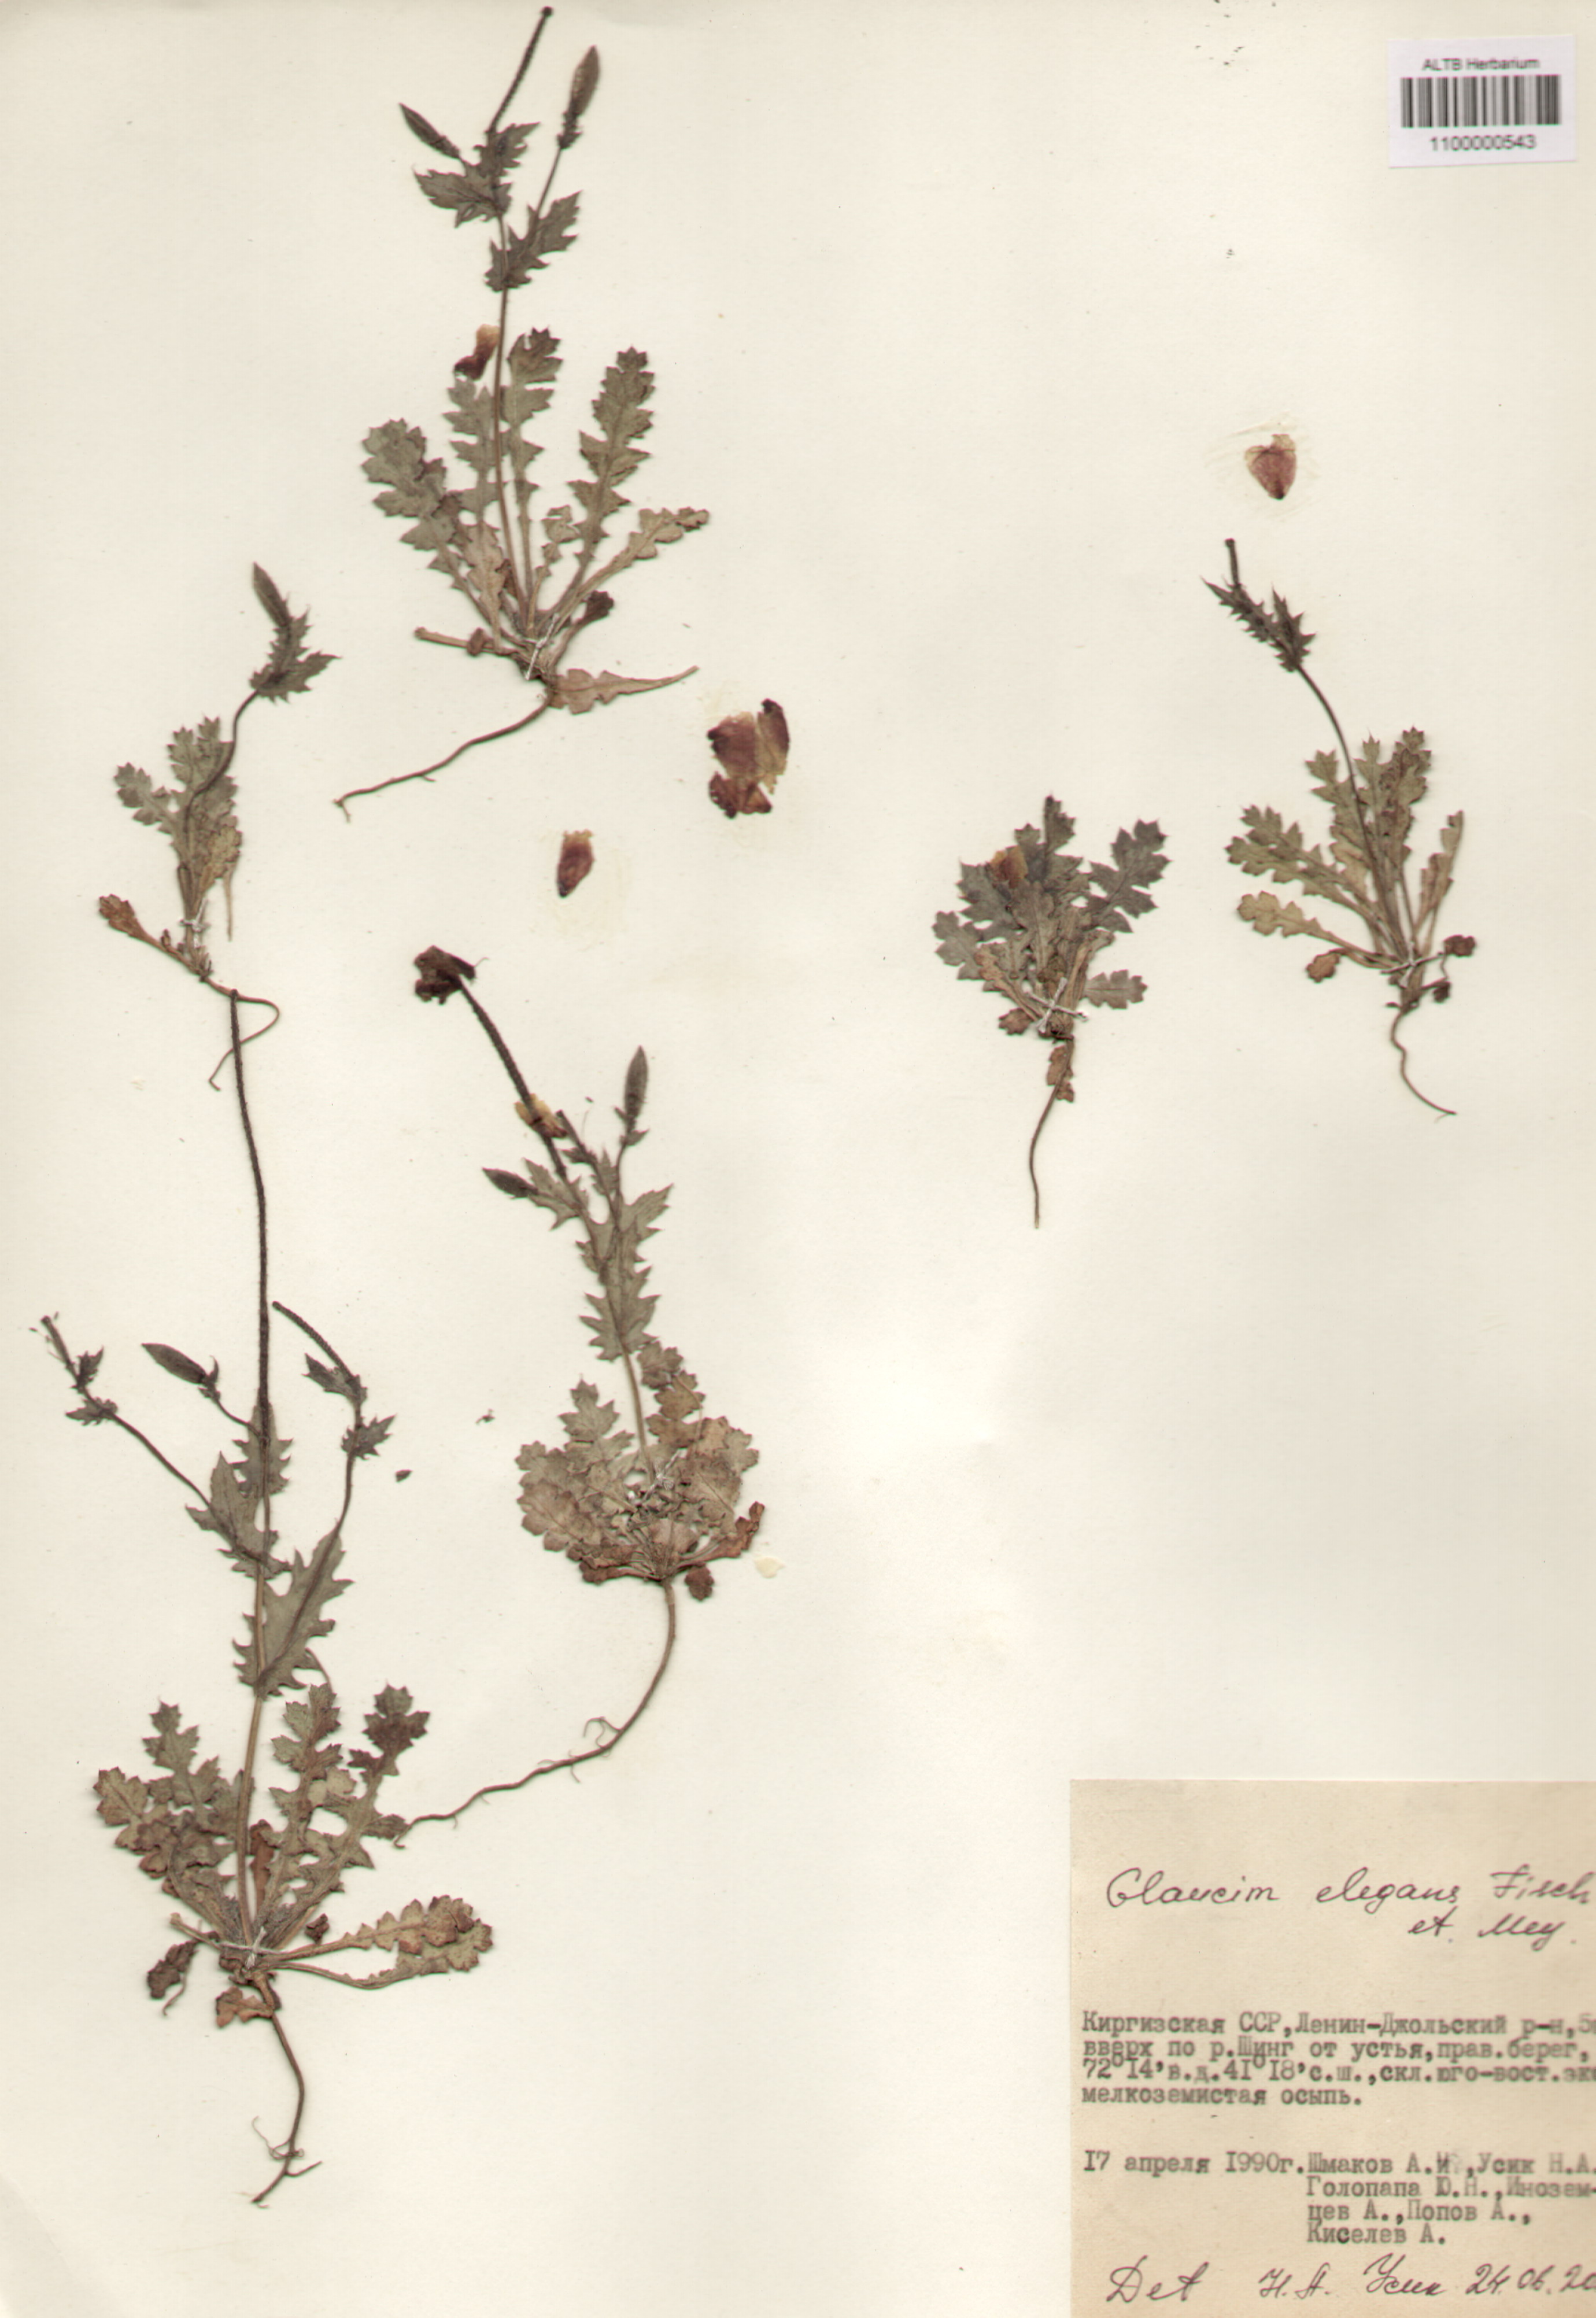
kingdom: Plantae
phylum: Tracheophyta
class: Magnoliopsida
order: Ranunculales
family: Papaveraceae
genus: Glaucium
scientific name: Glaucium elegans
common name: Annual horned-poppy
